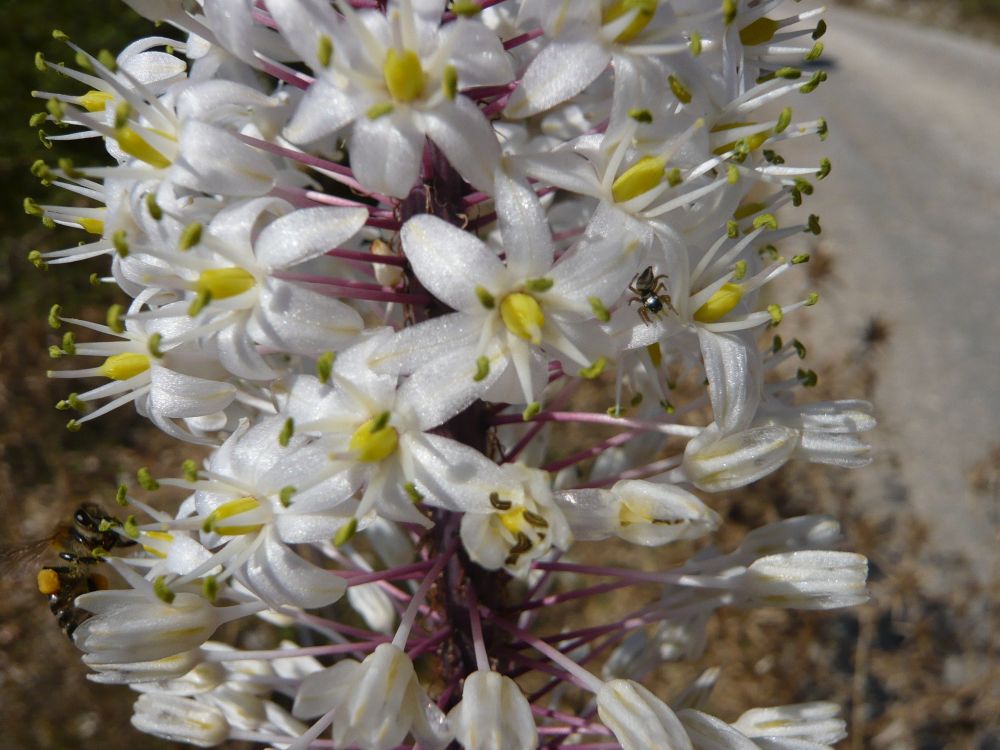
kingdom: Plantae
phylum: Tracheophyta
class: Liliopsida
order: Asparagales
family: Asparagaceae
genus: Drimia
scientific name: Drimia maritima
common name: Maritime squill
